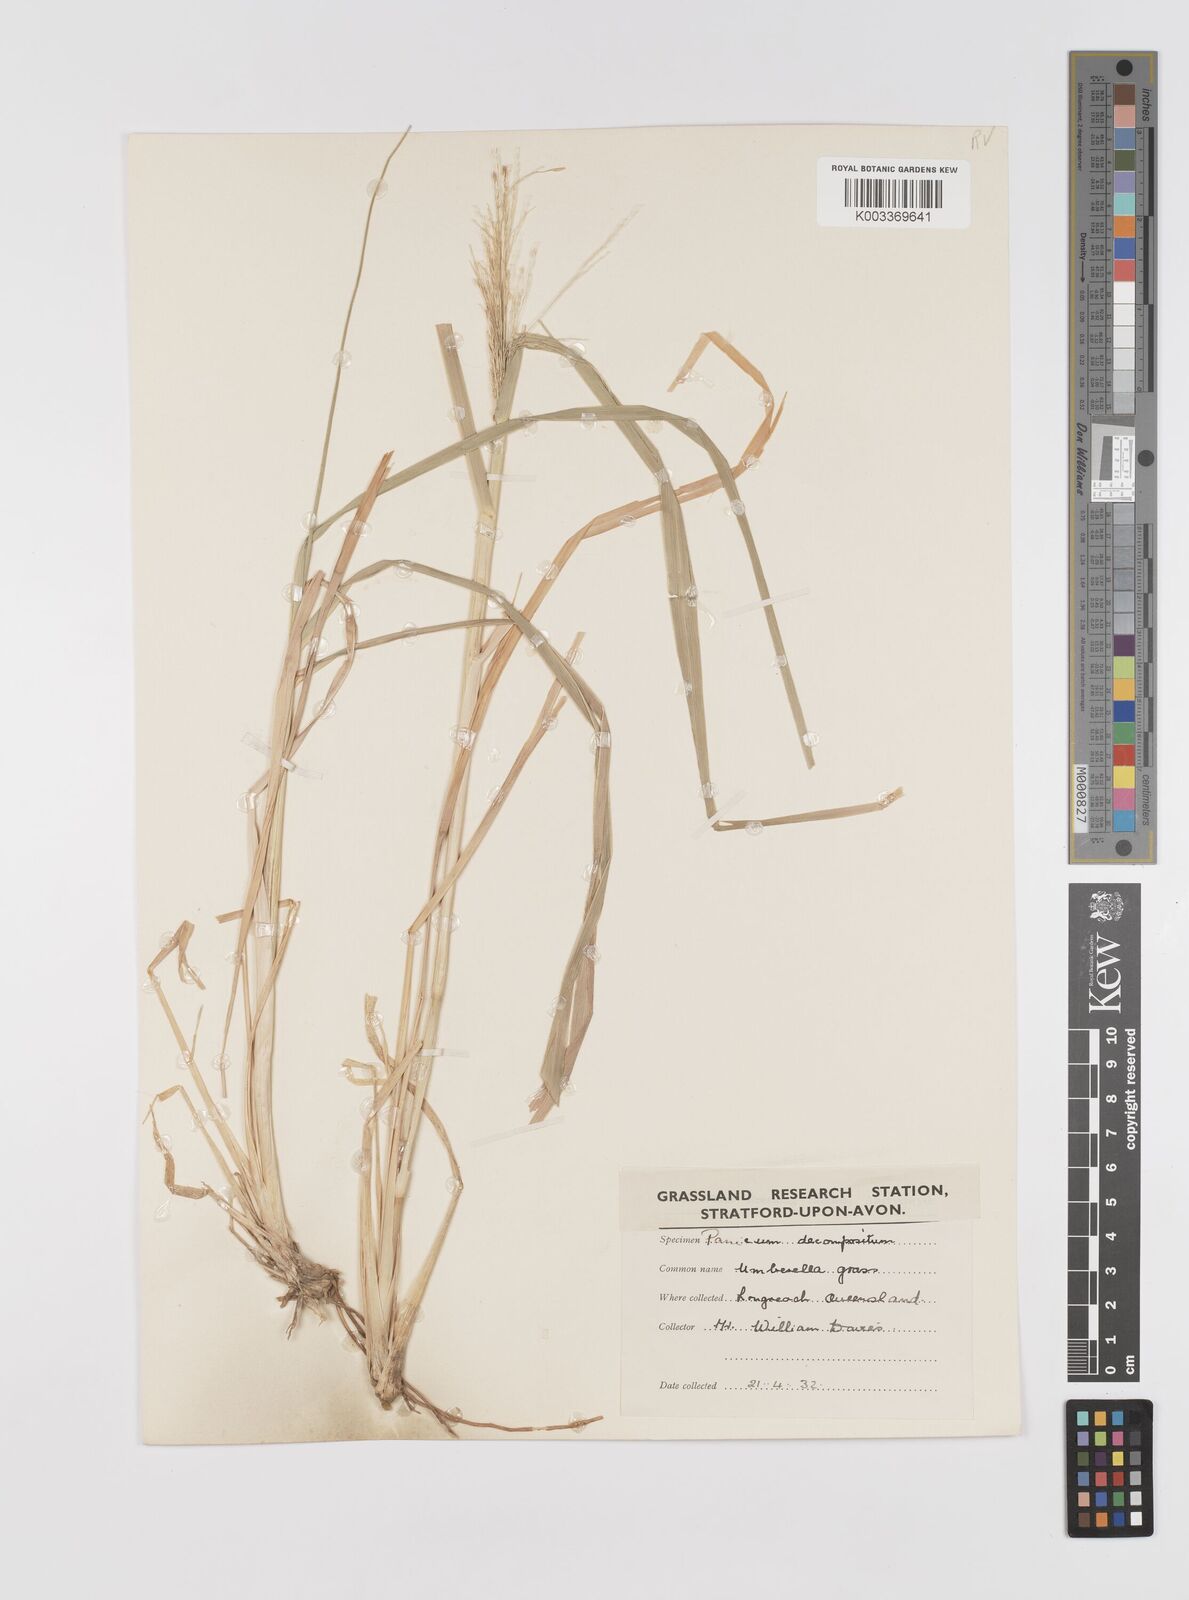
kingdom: Plantae
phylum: Tracheophyta
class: Liliopsida
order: Poales
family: Poaceae
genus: Panicum
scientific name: Panicum decompositum
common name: Australian millet
